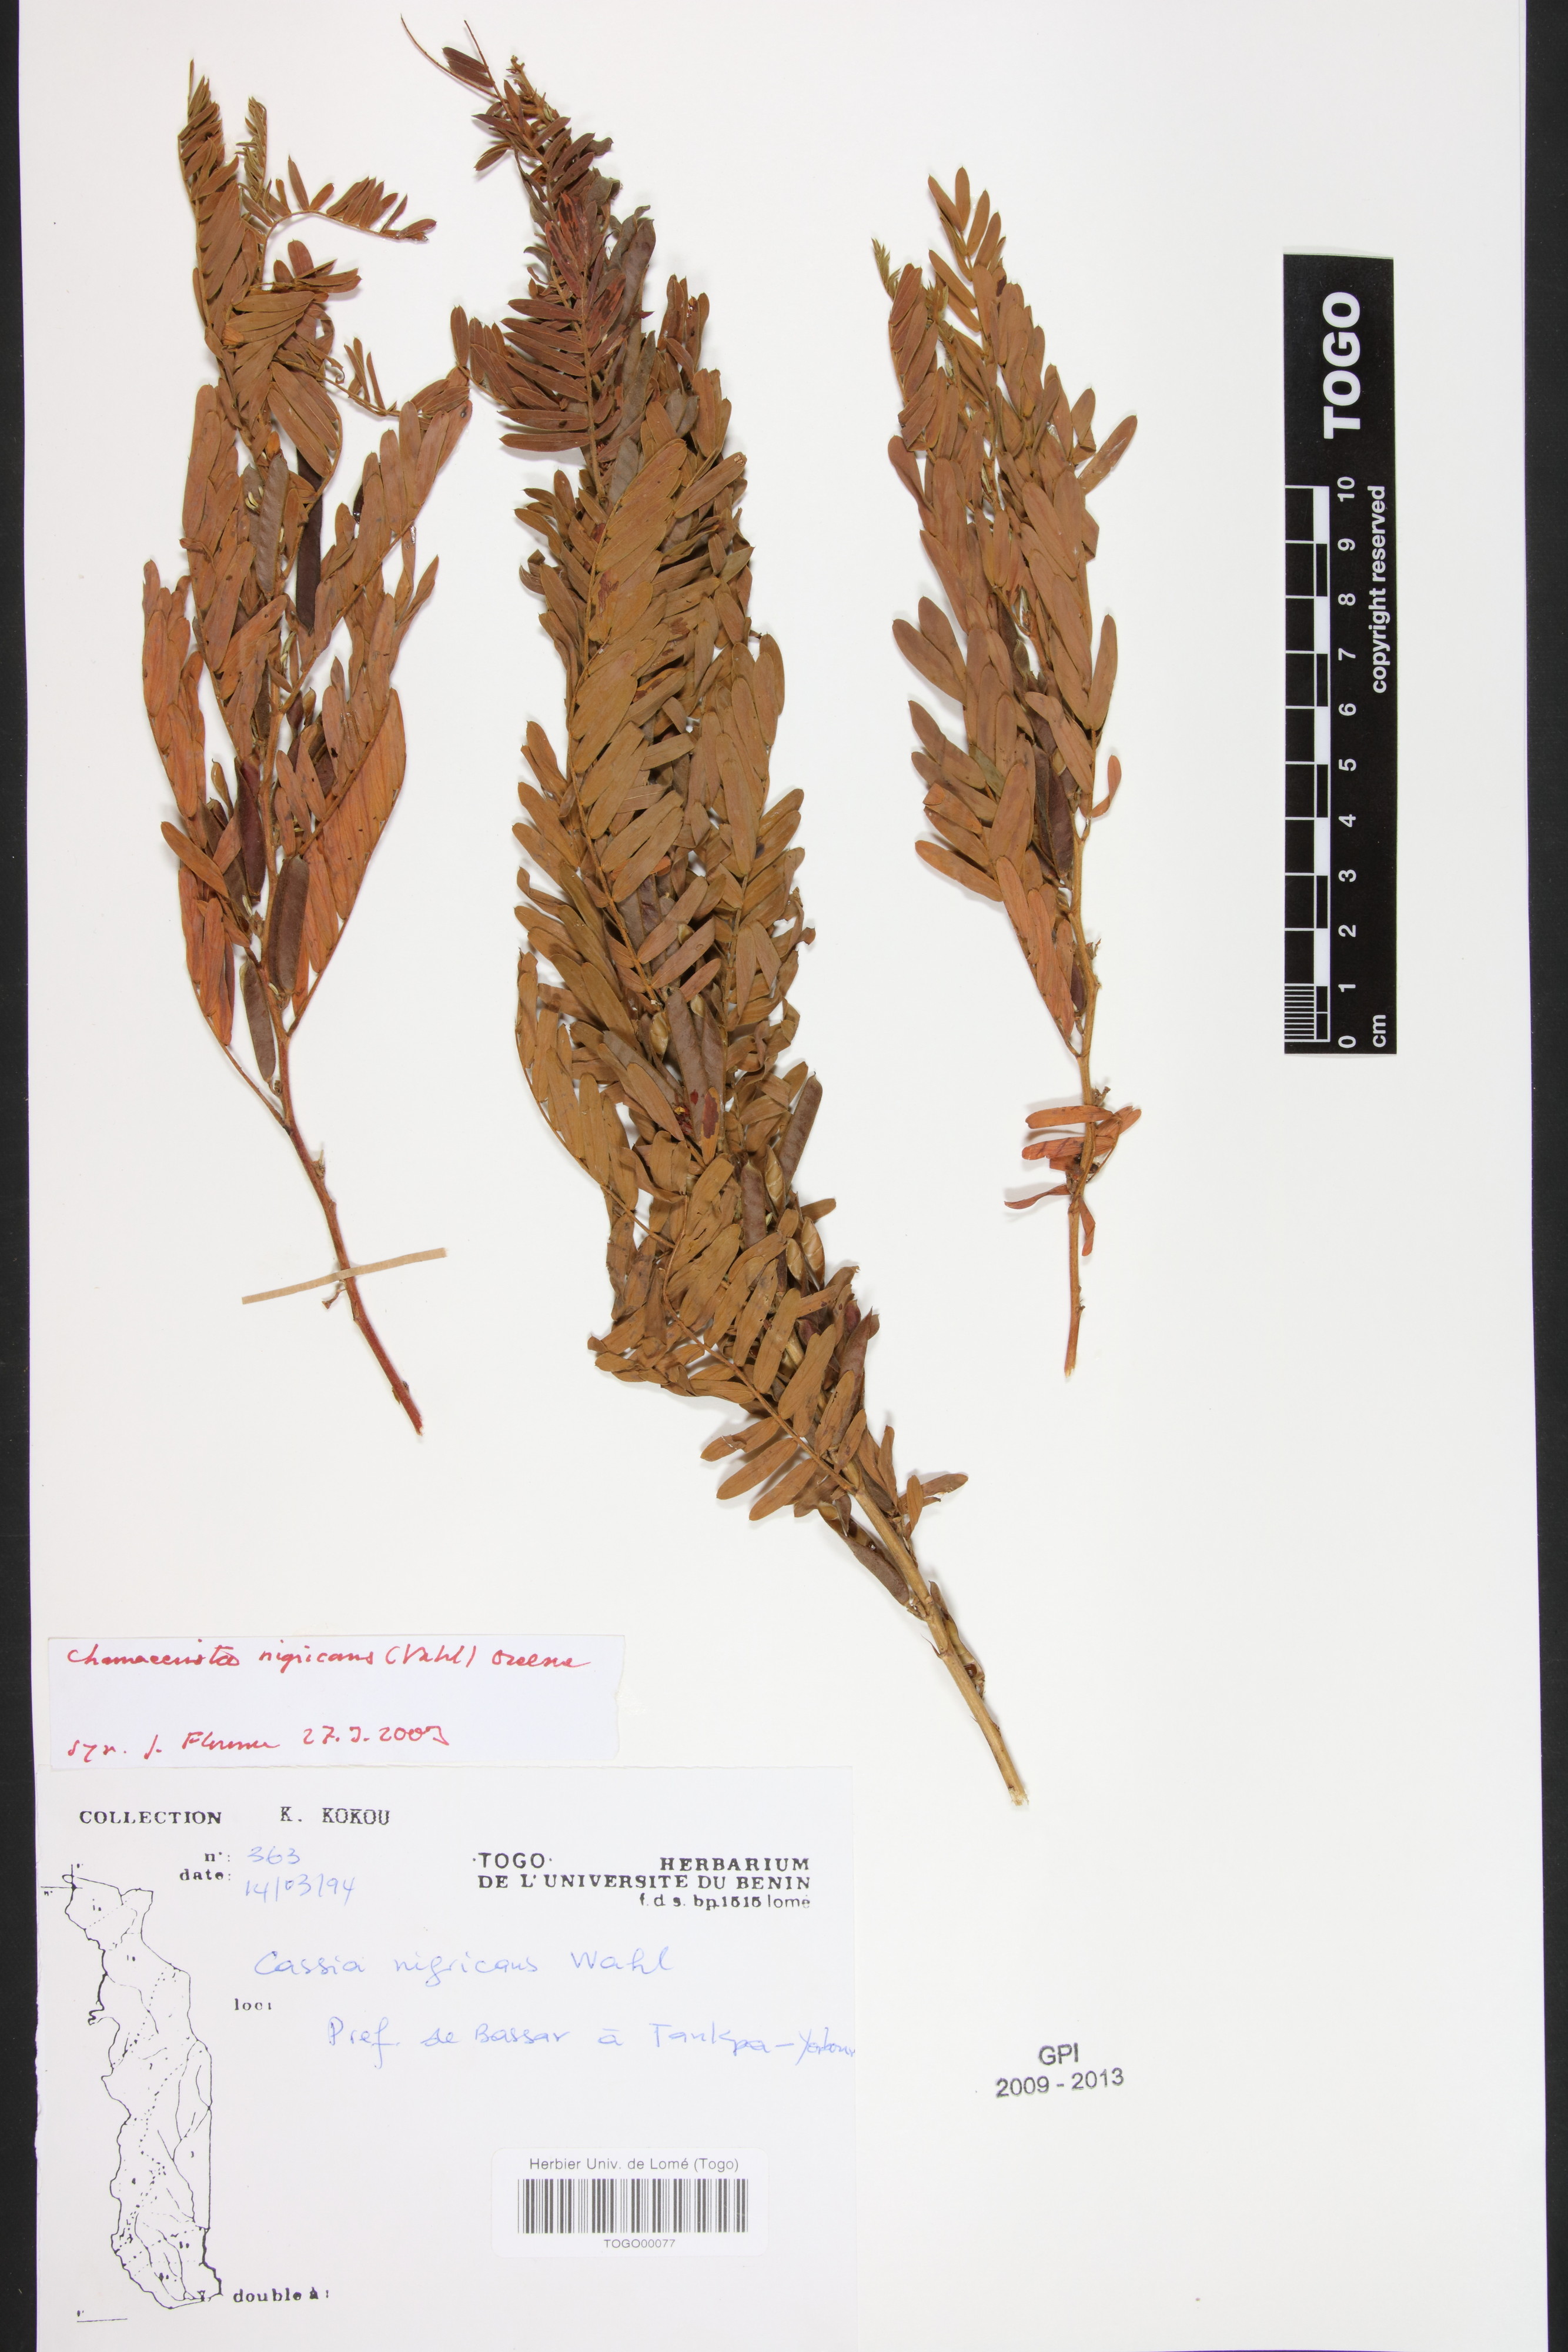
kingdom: Plantae
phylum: Tracheophyta
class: Magnoliopsida
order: Fabales
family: Fabaceae
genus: Chamaecrista
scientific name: Chamaecrista nigricans
